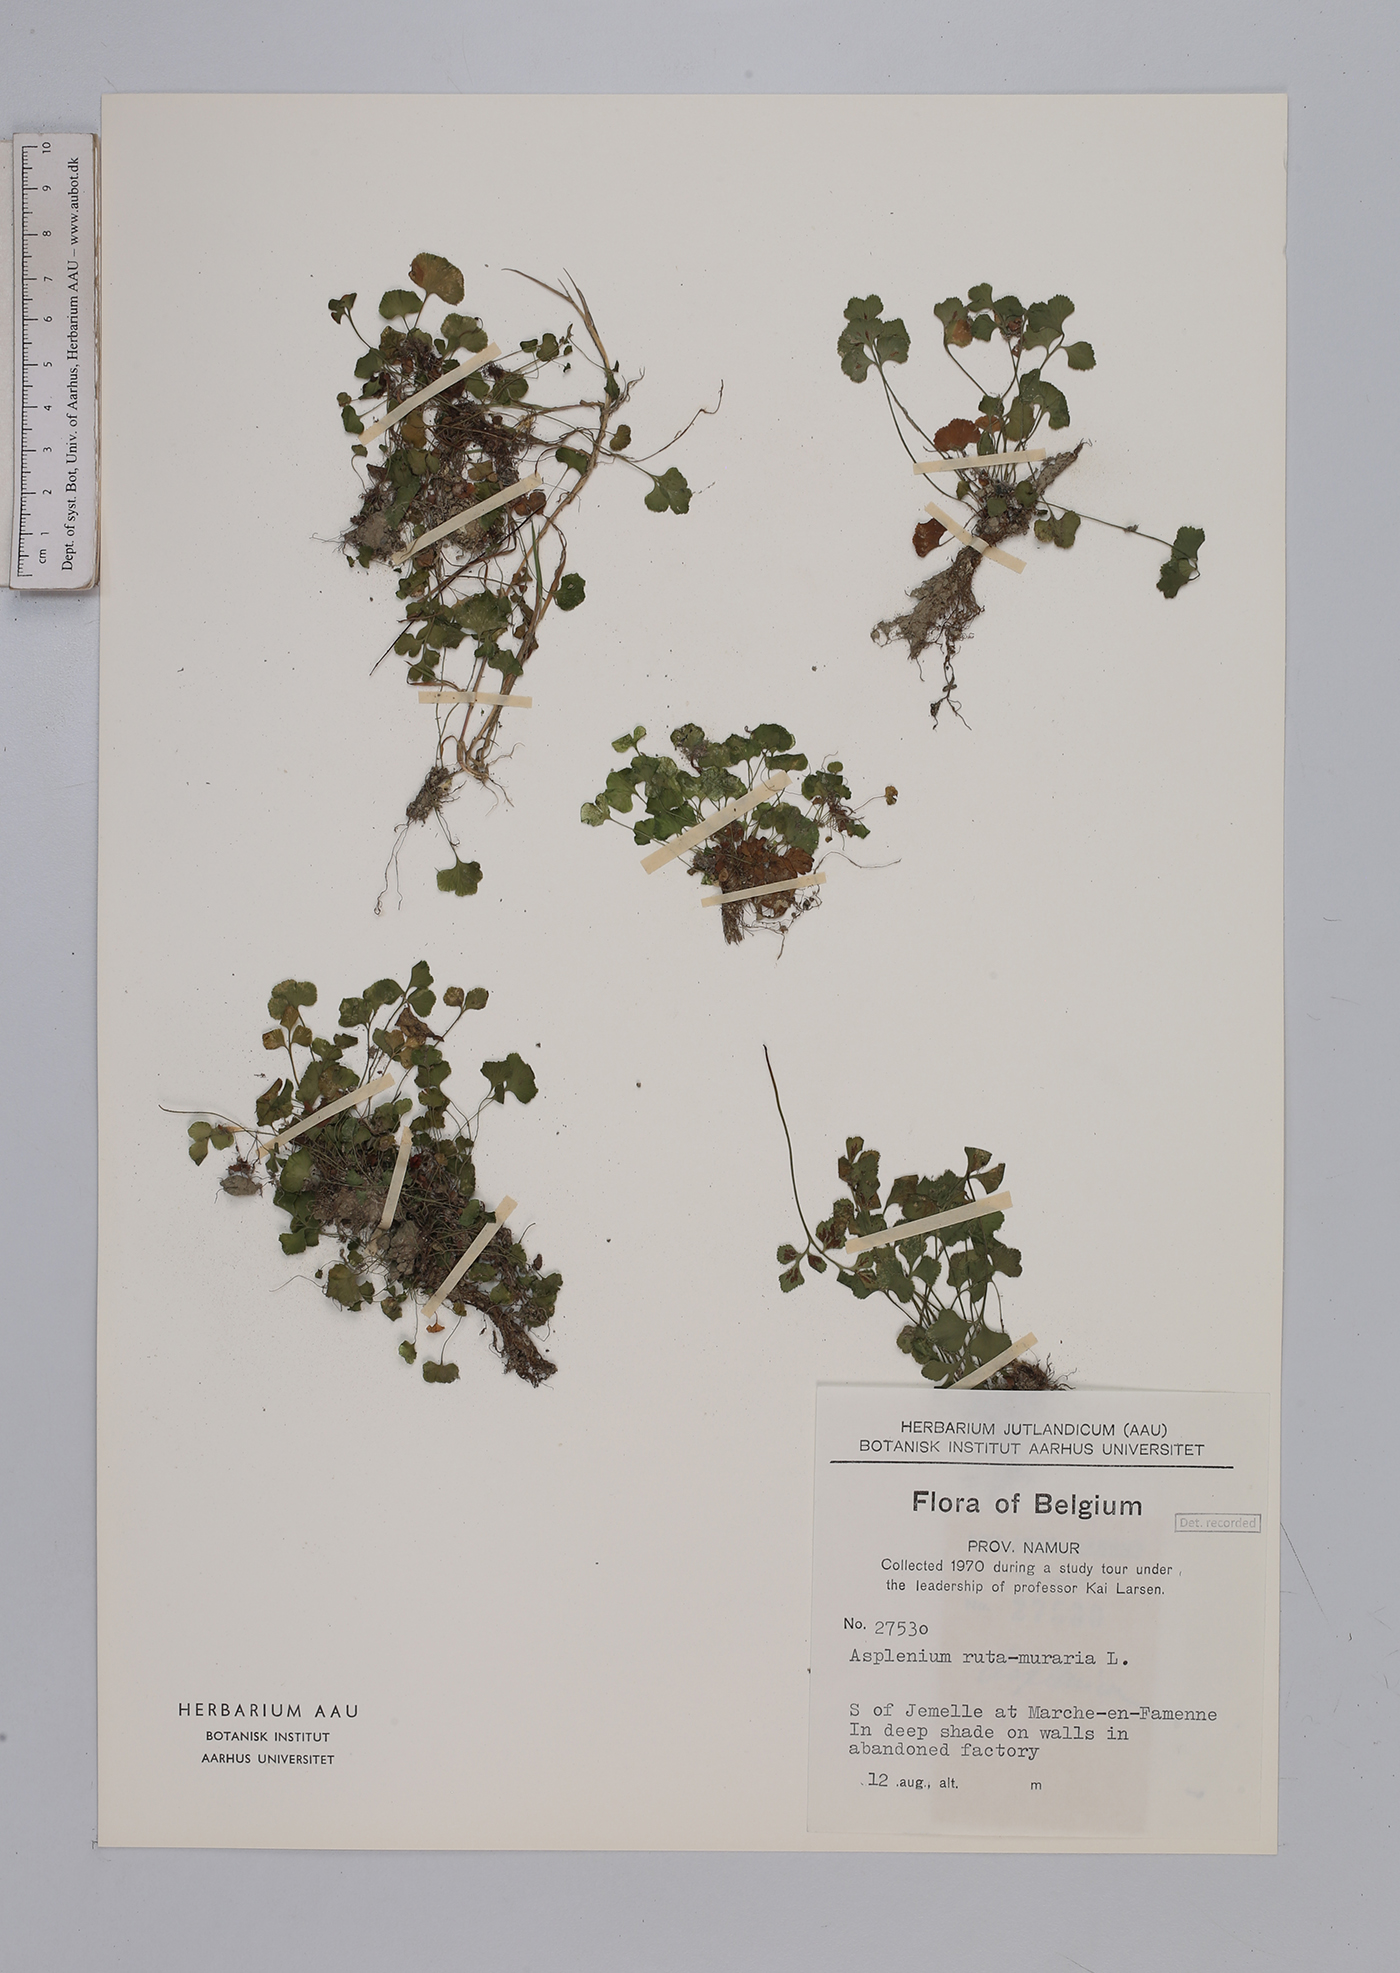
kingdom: Plantae
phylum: Tracheophyta
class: Polypodiopsida
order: Polypodiales
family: Aspleniaceae
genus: Asplenium
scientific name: Asplenium ruta-muraria
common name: Wall-rue
